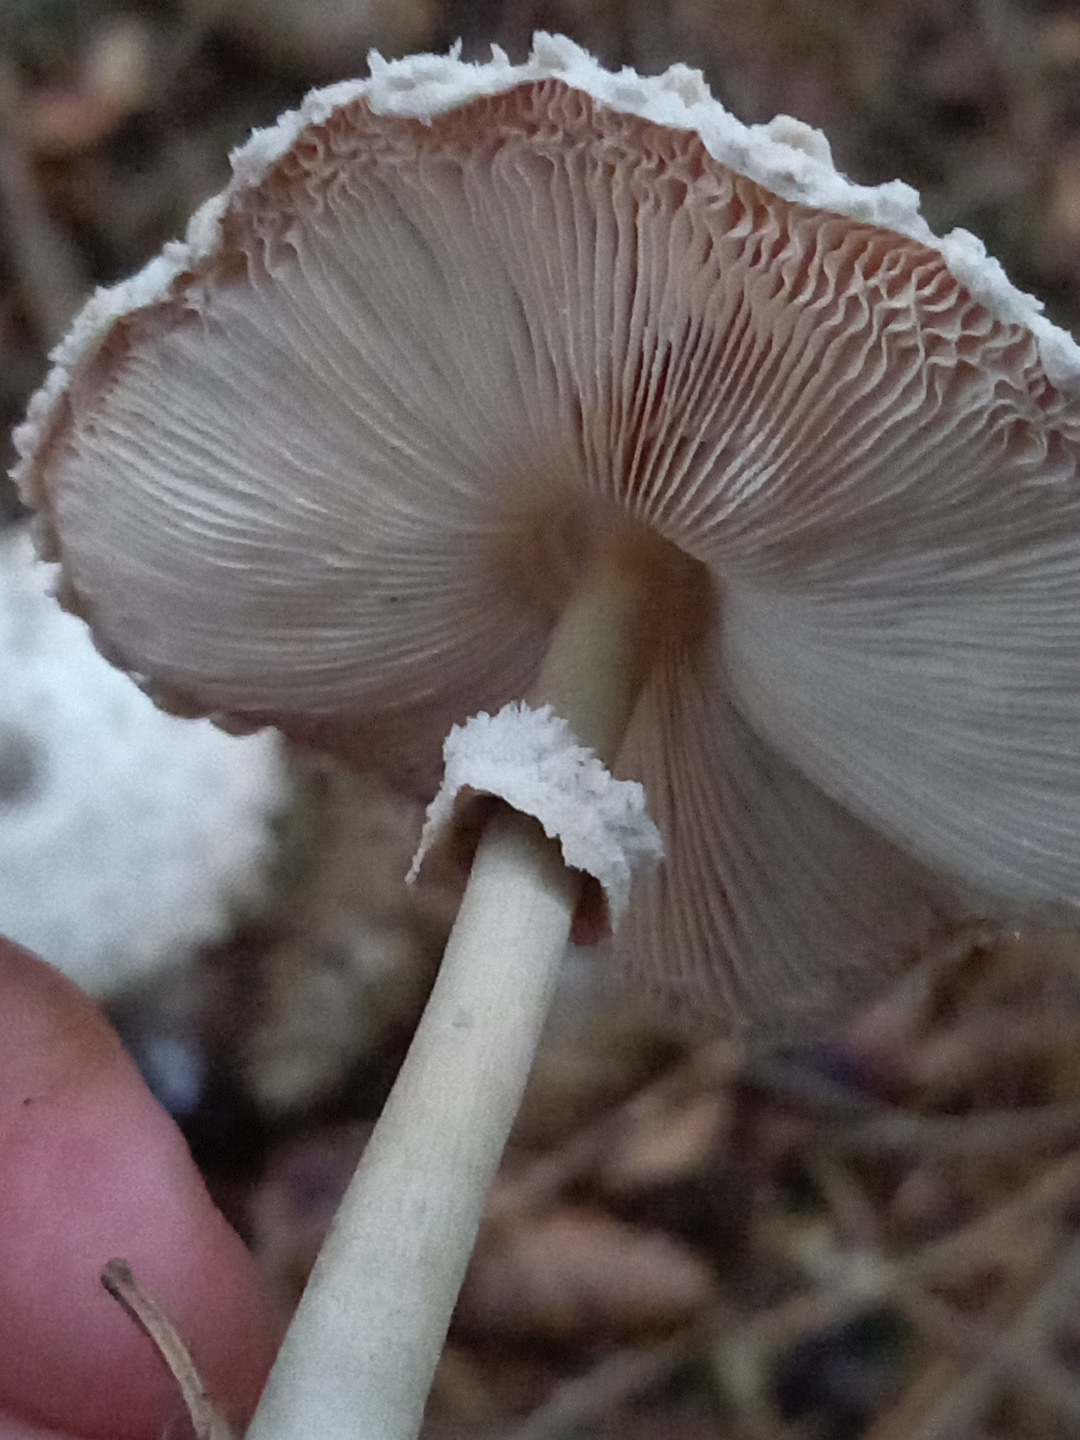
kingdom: Fungi
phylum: Basidiomycota
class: Agaricomycetes
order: Agaricales
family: Agaricaceae
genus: Leucoagaricus
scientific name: Leucoagaricus nympharum
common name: gran-silkehat
